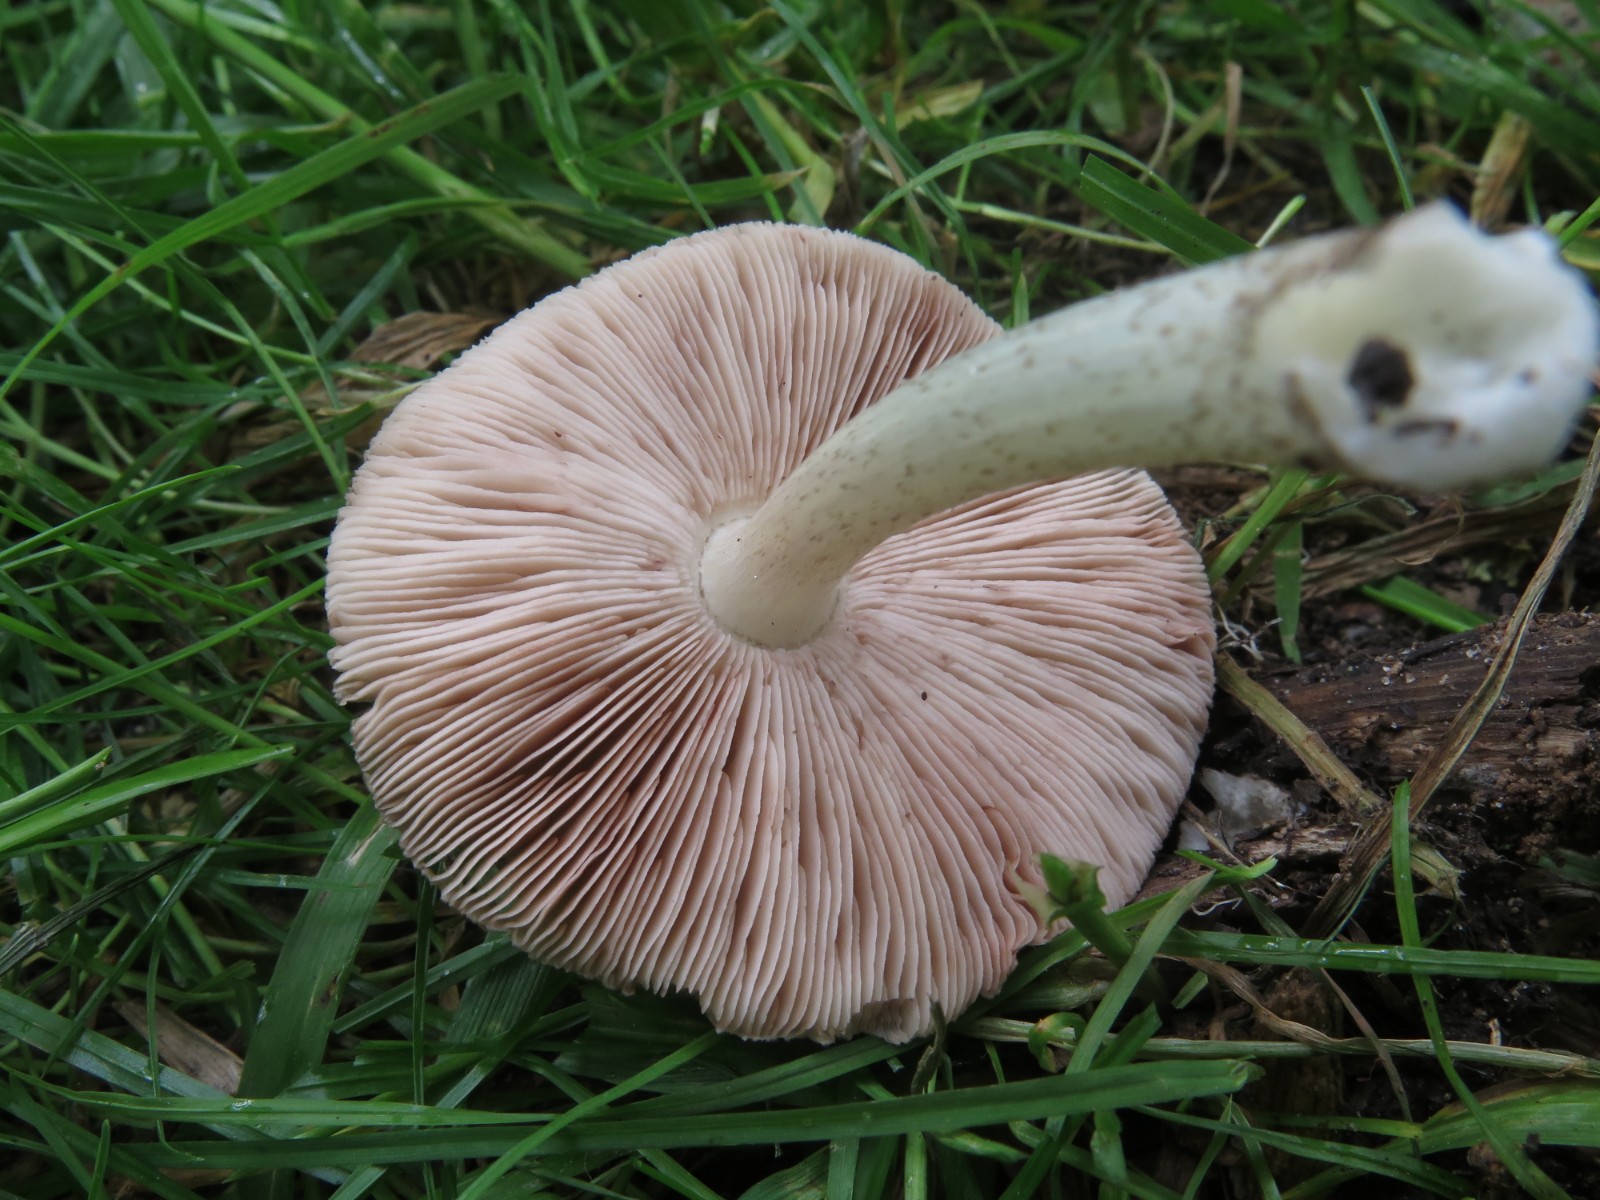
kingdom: Fungi
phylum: Basidiomycota
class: Agaricomycetes
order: Agaricales
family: Pluteaceae
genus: Pluteus
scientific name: Pluteus
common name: gråfibret skærmhat
